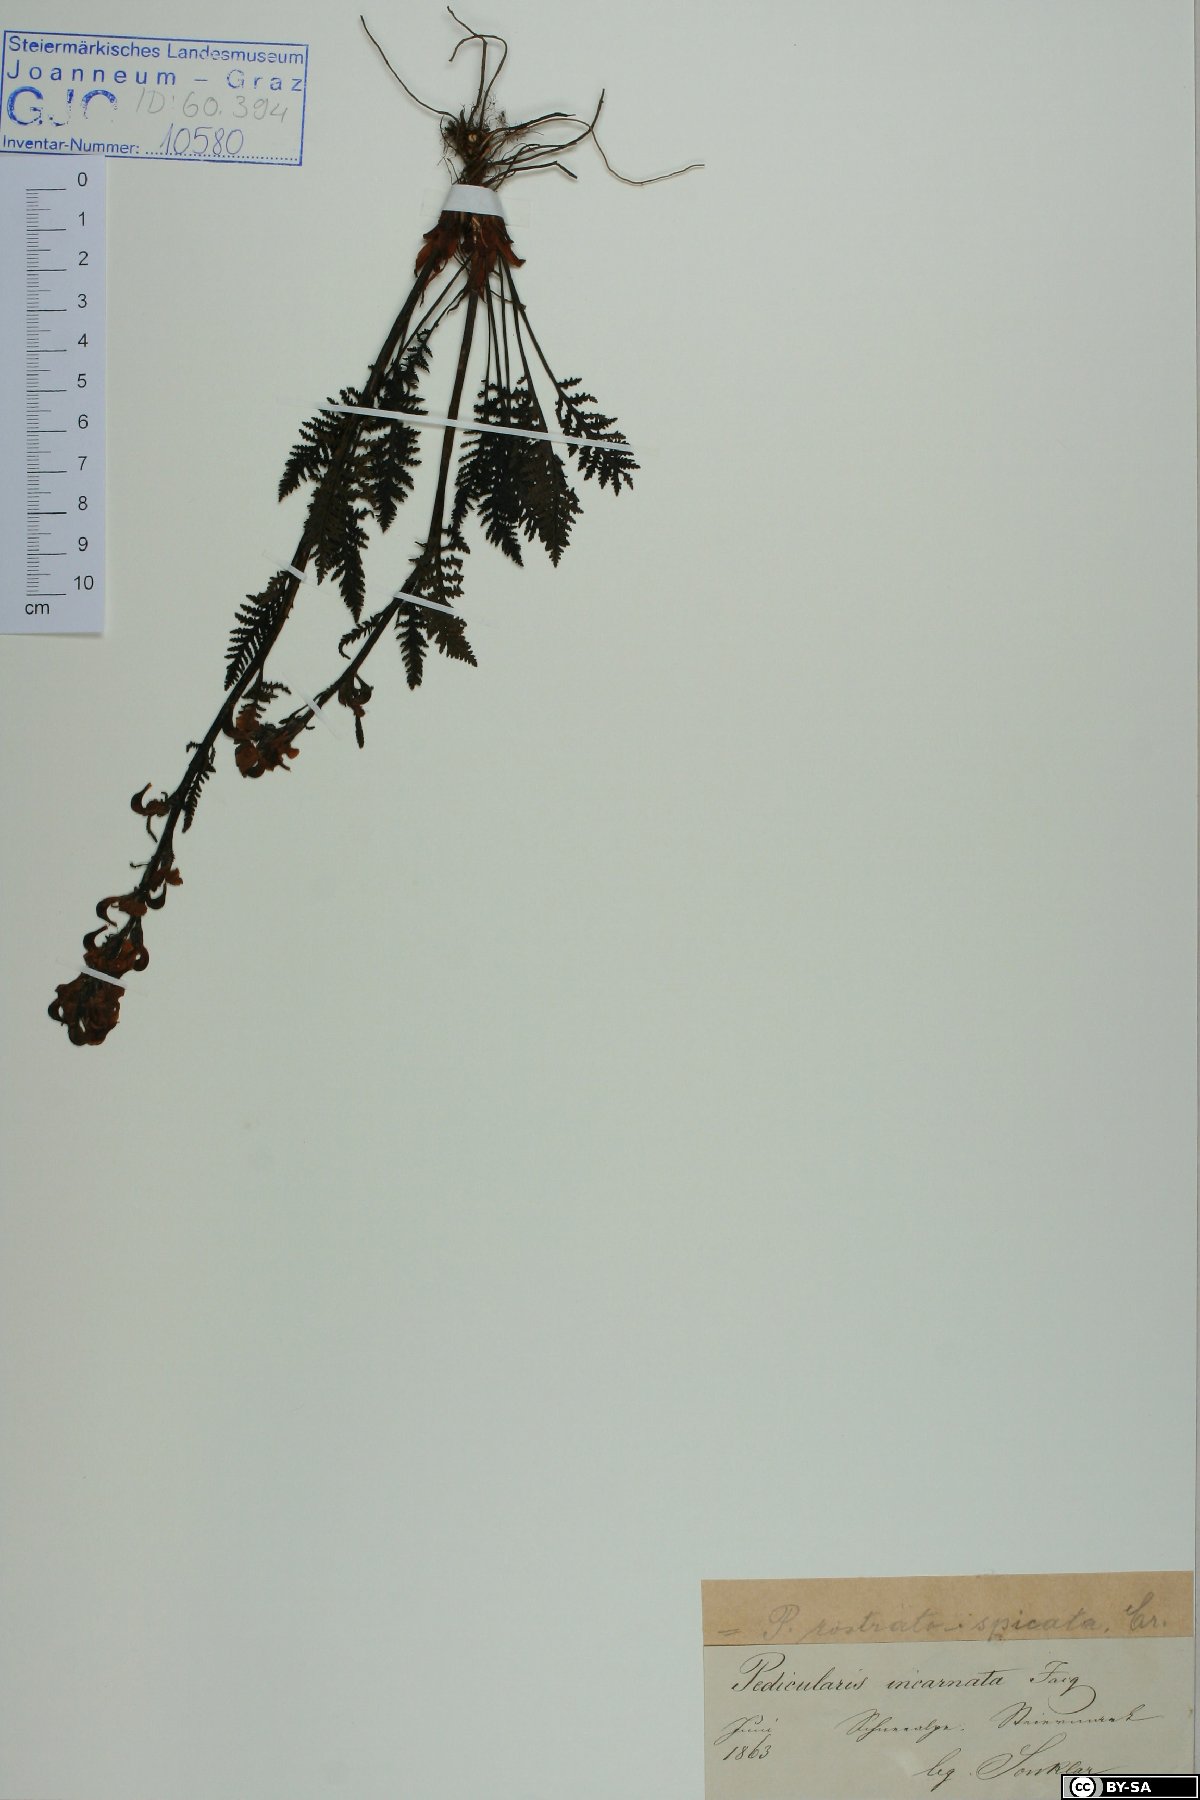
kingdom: Plantae
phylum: Tracheophyta
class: Magnoliopsida
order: Lamiales
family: Orobanchaceae
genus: Pedicularis
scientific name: Pedicularis rostratospicata
